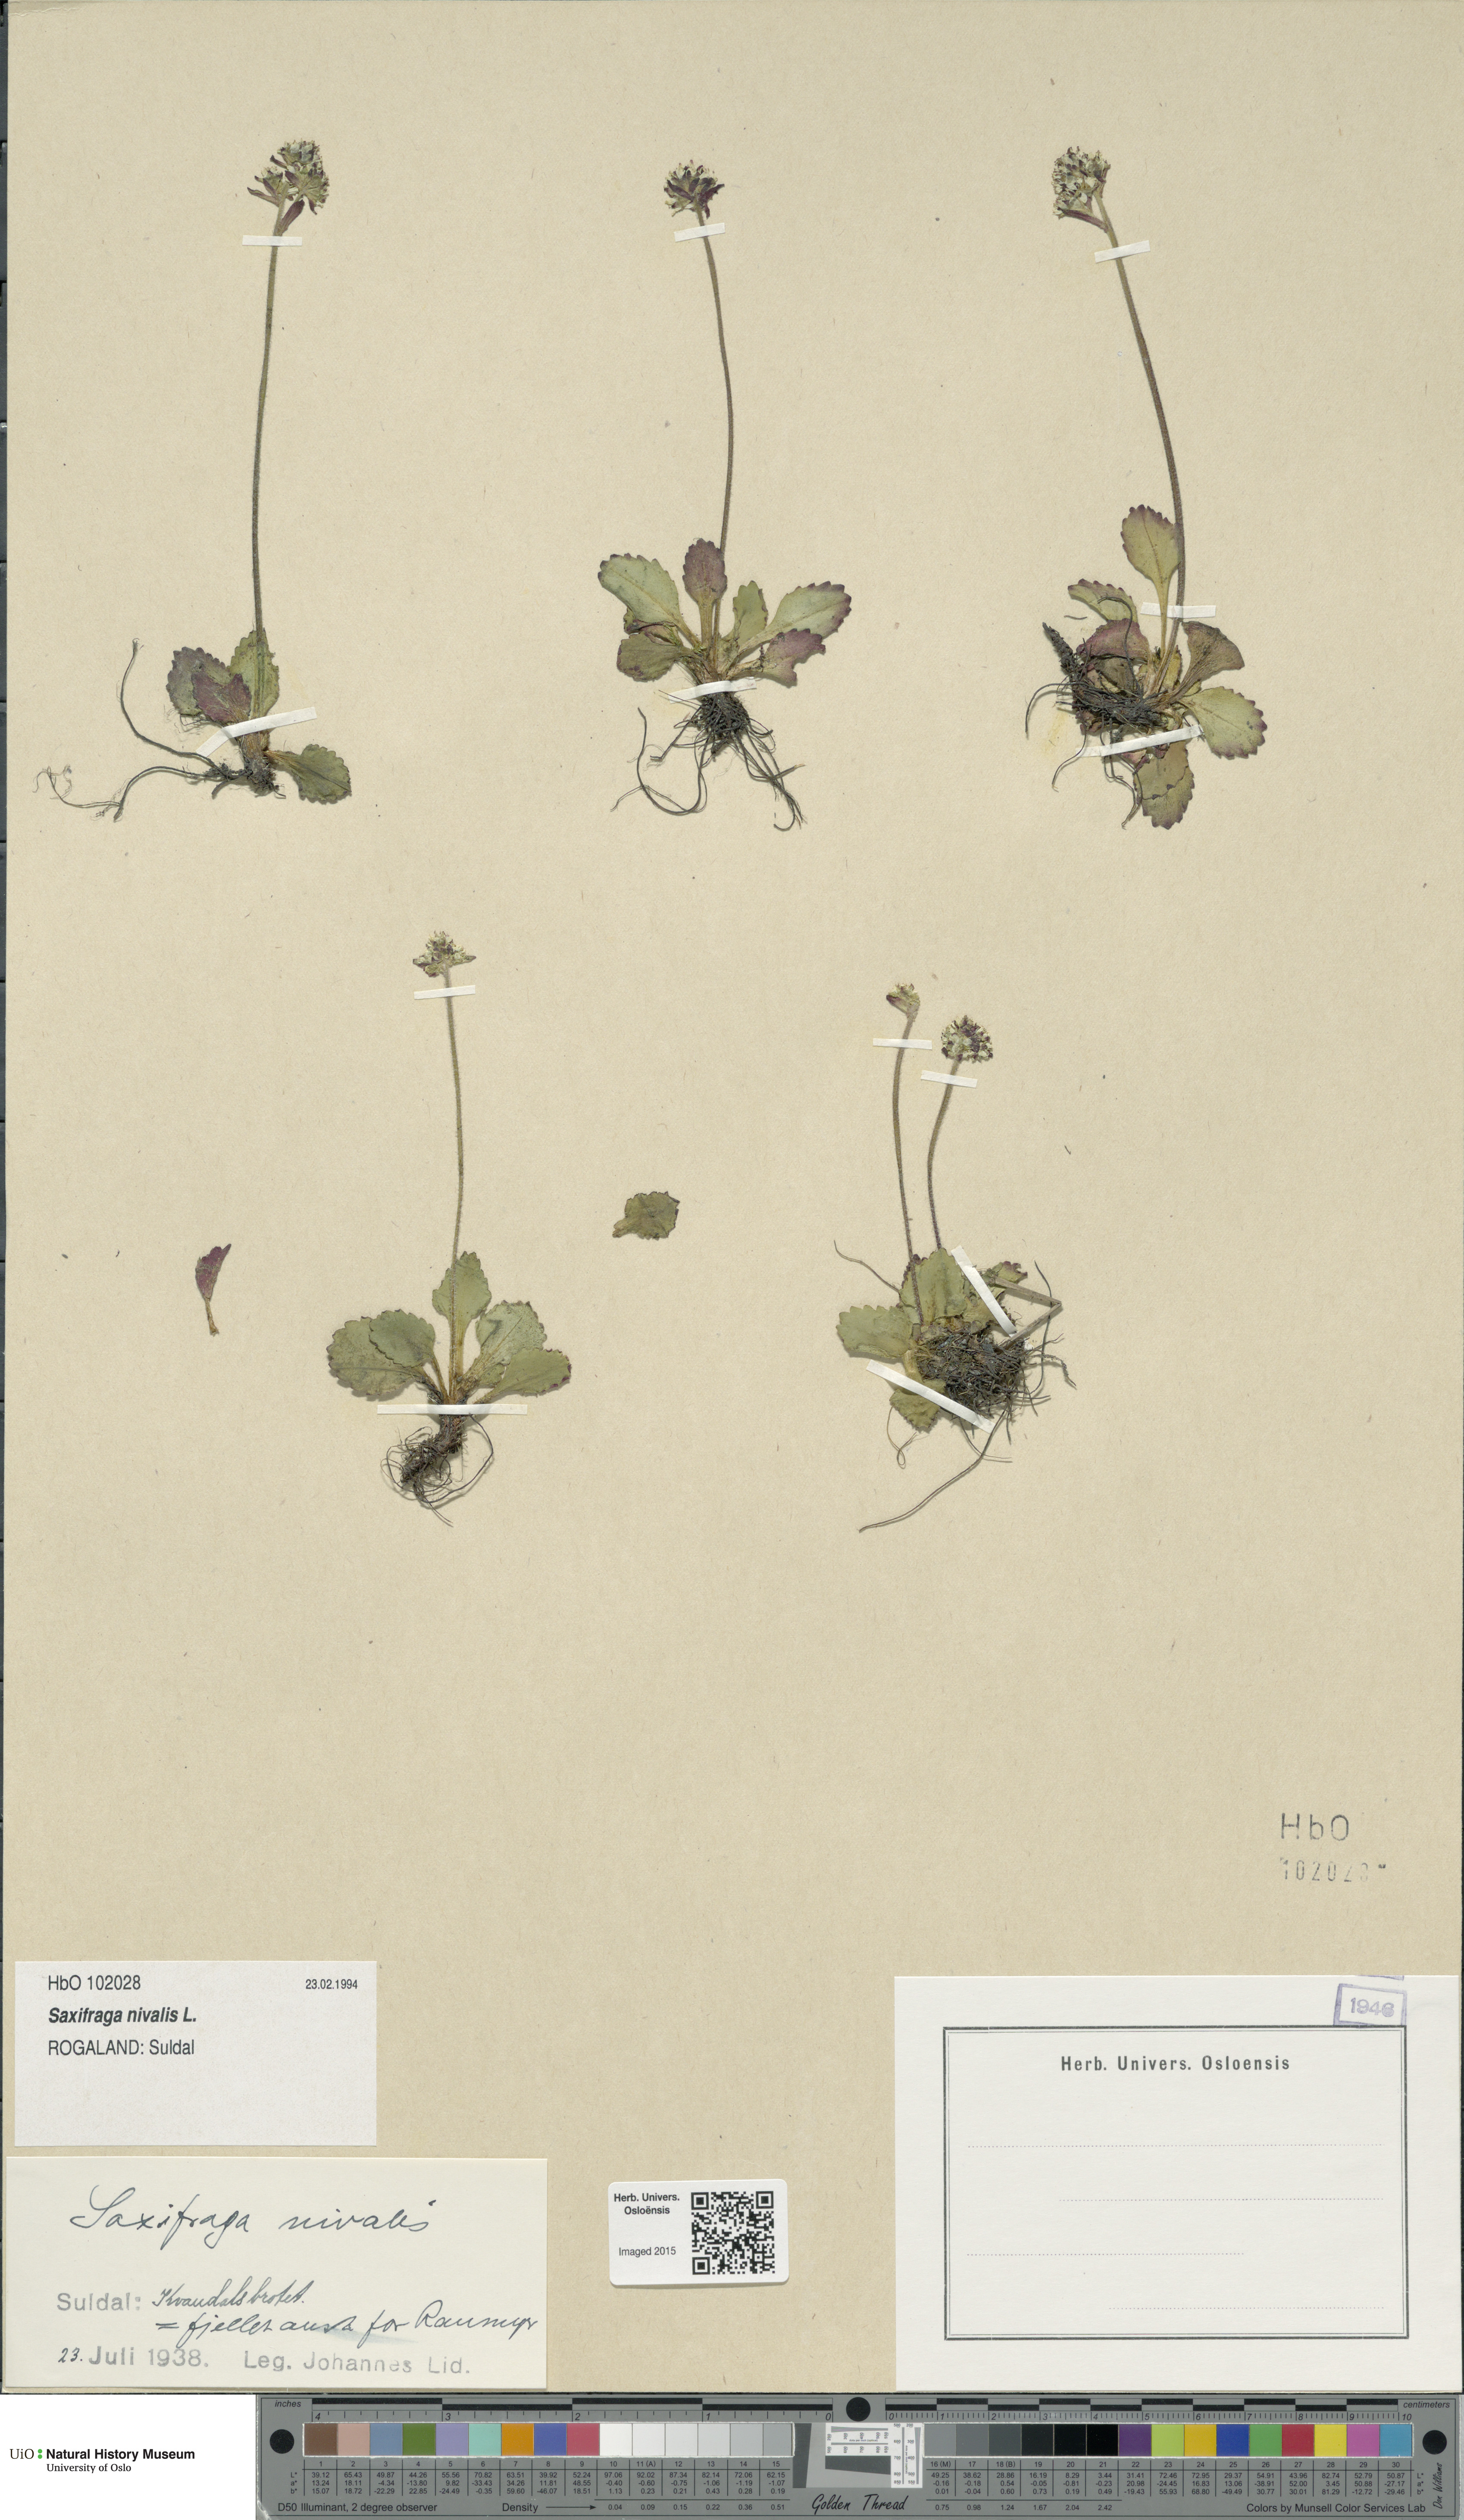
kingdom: Plantae
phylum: Tracheophyta
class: Magnoliopsida
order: Saxifragales
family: Saxifragaceae
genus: Micranthes
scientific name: Micranthes nivalis
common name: Alpine saxifrage
